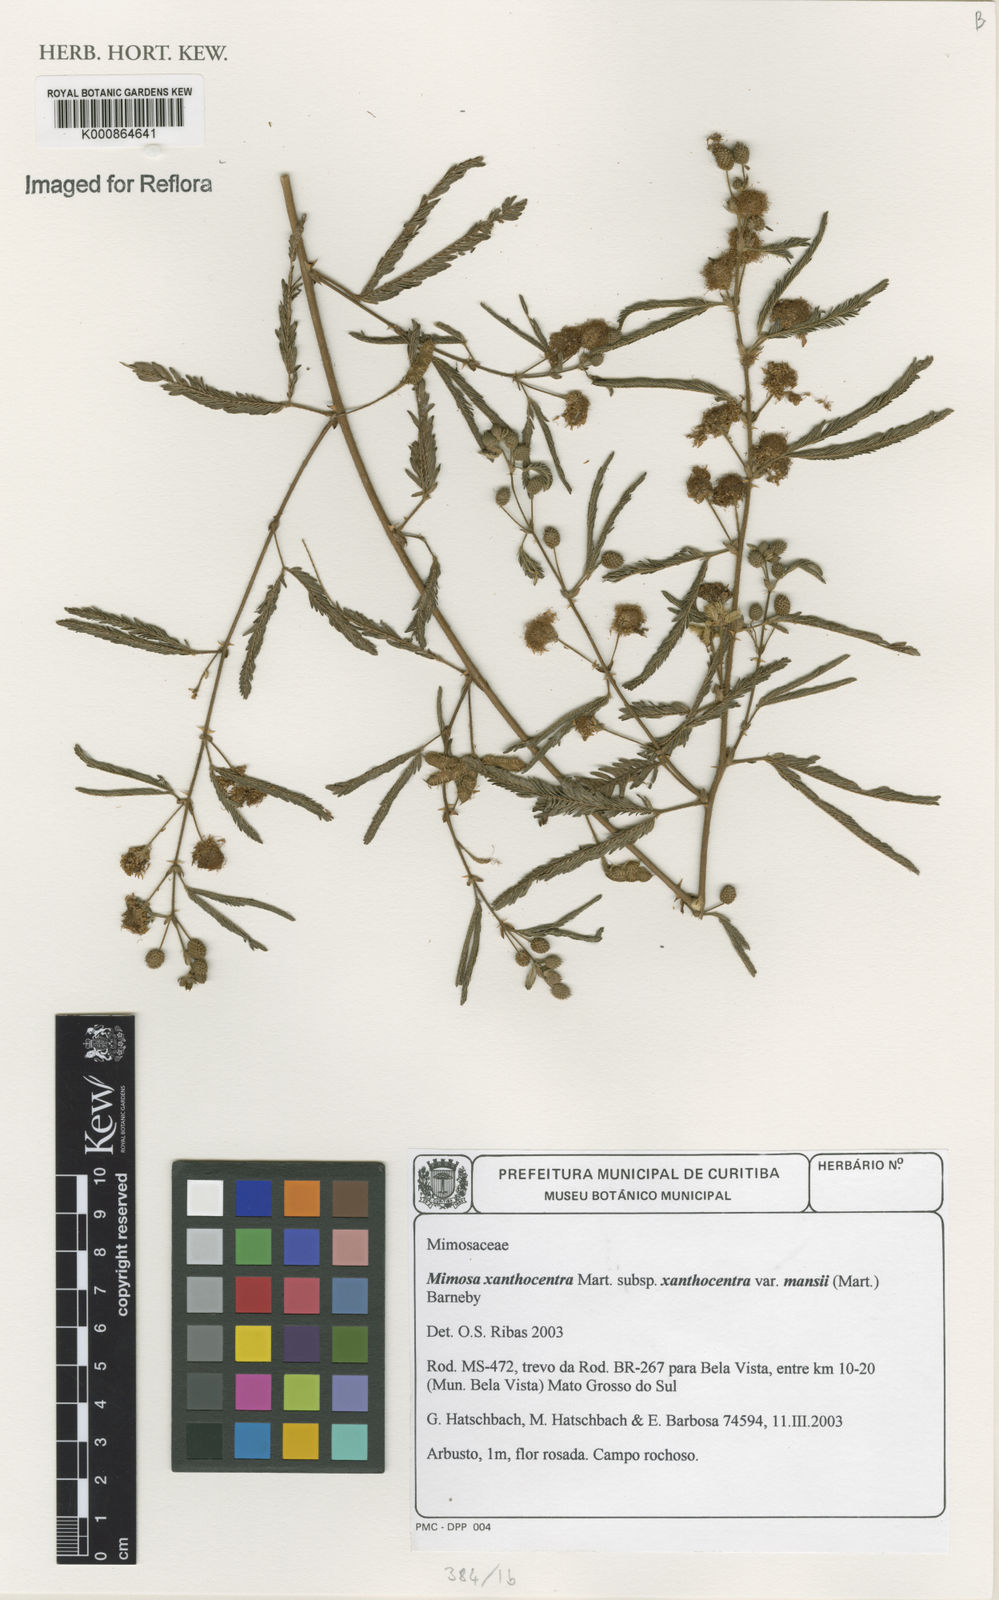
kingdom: Plantae
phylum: Tracheophyta
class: Magnoliopsida
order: Fabales
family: Fabaceae
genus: Mimosa
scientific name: Mimosa xanthocentra
